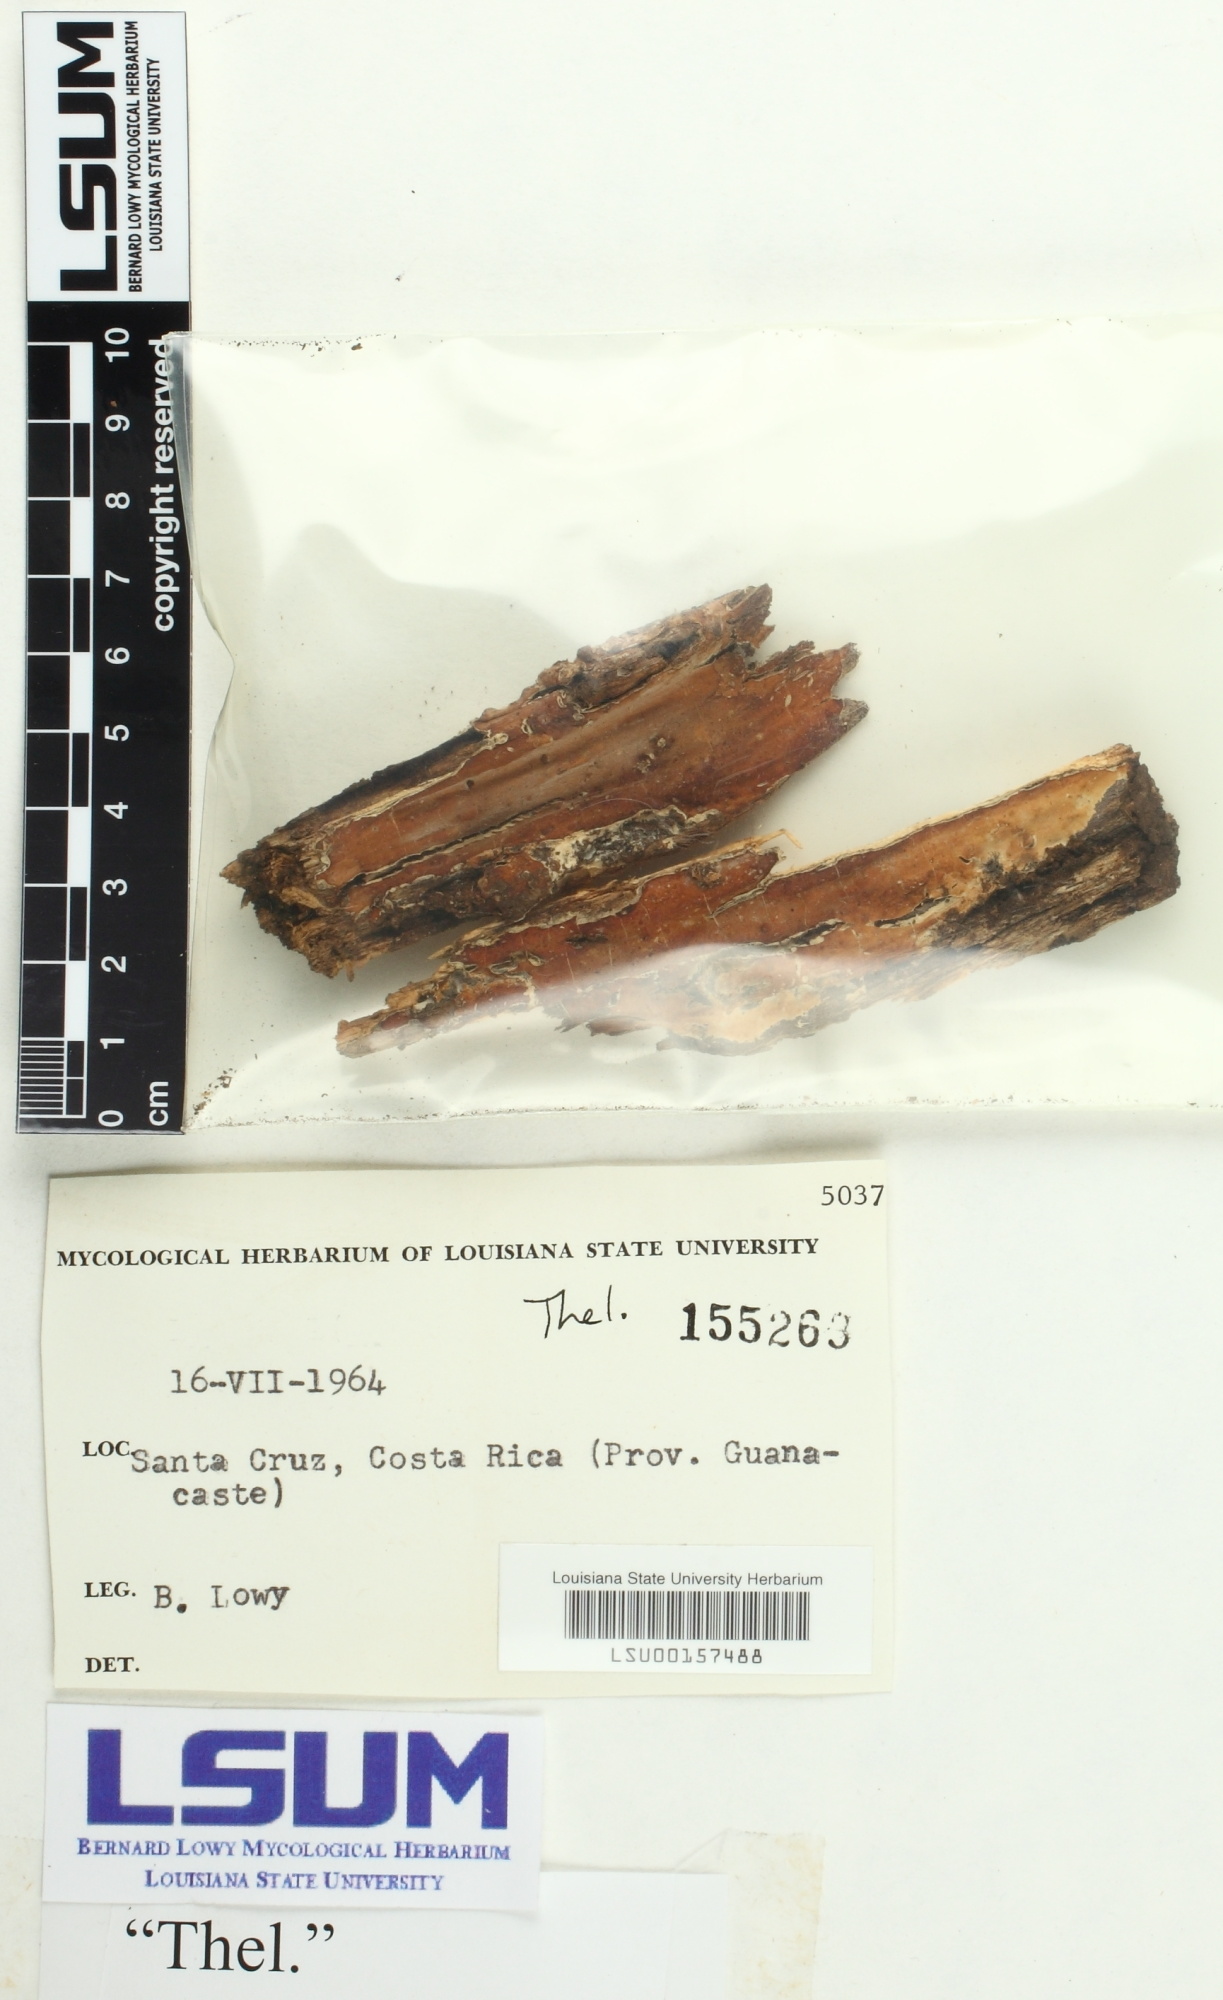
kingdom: Fungi
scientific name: Fungi
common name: Fungi
